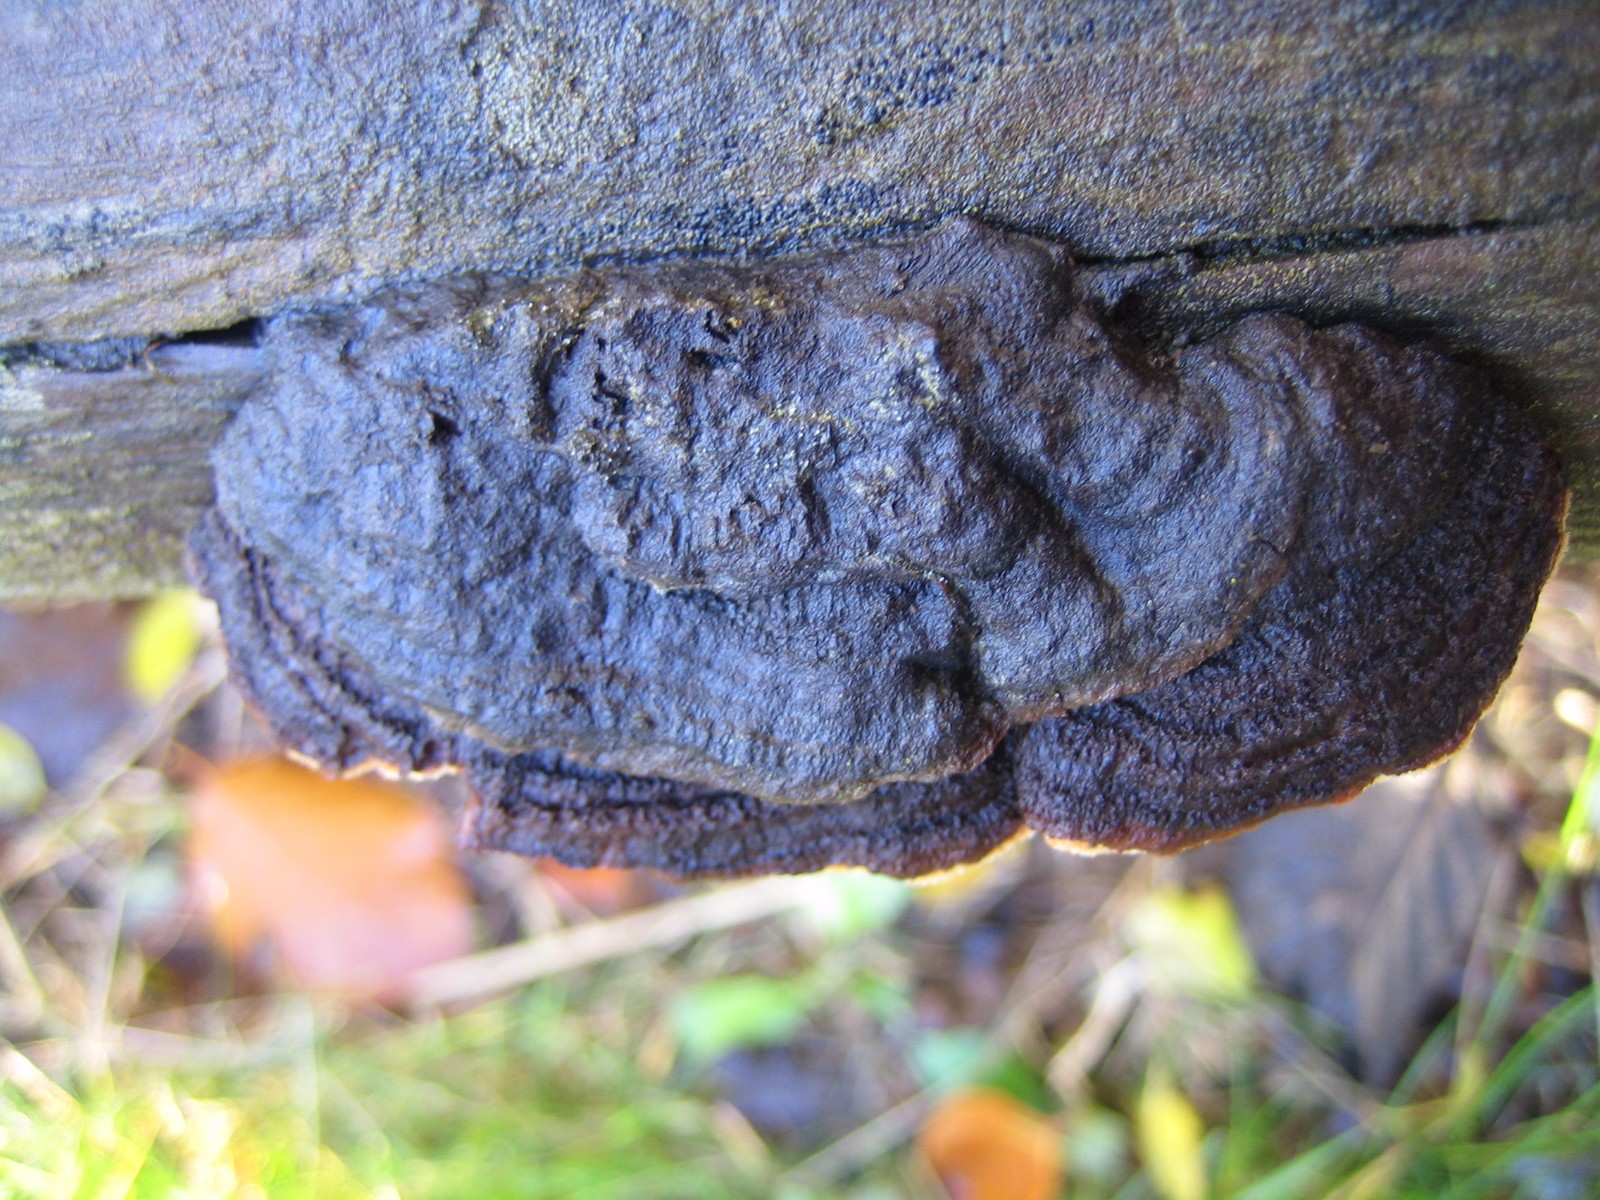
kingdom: Fungi
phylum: Basidiomycota
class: Agaricomycetes
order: Gloeophyllales
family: Gloeophyllaceae
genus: Gloeophyllum
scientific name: Gloeophyllum sepiarium
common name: fyrre-korkhat
